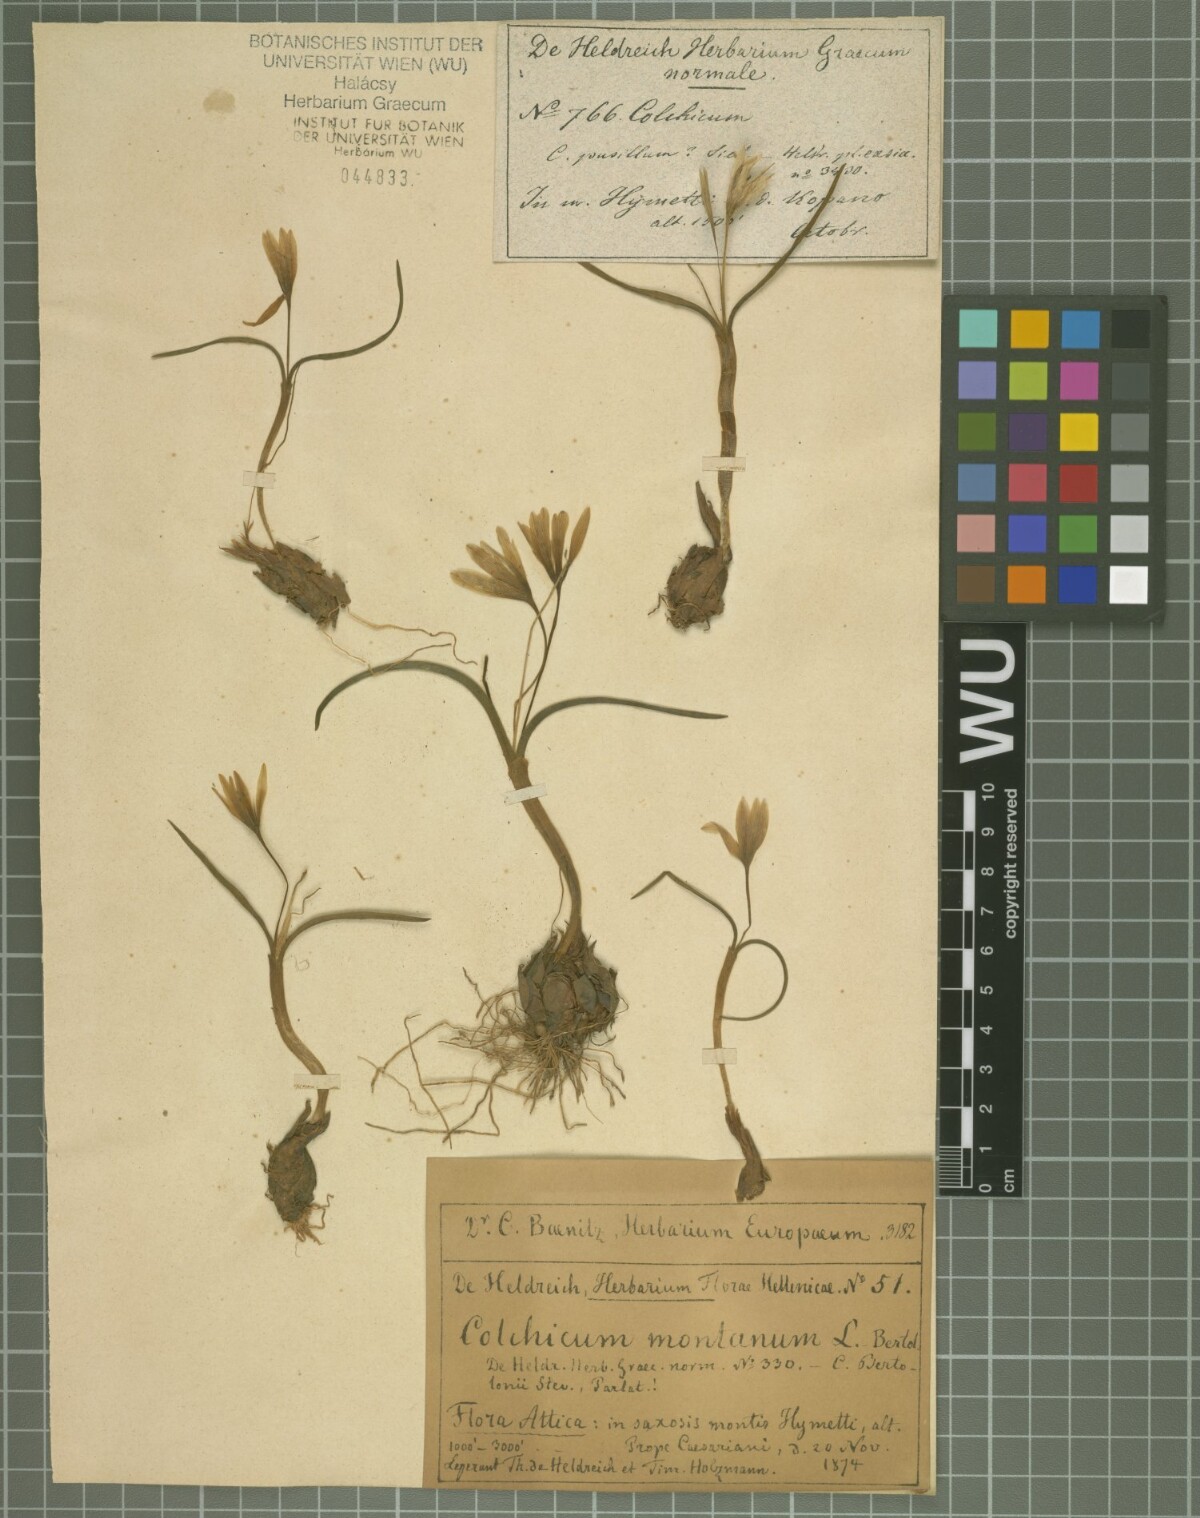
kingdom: Plantae
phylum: Tracheophyta
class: Liliopsida
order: Liliales
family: Colchicaceae
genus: Colchicum
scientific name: Colchicum cupanii
